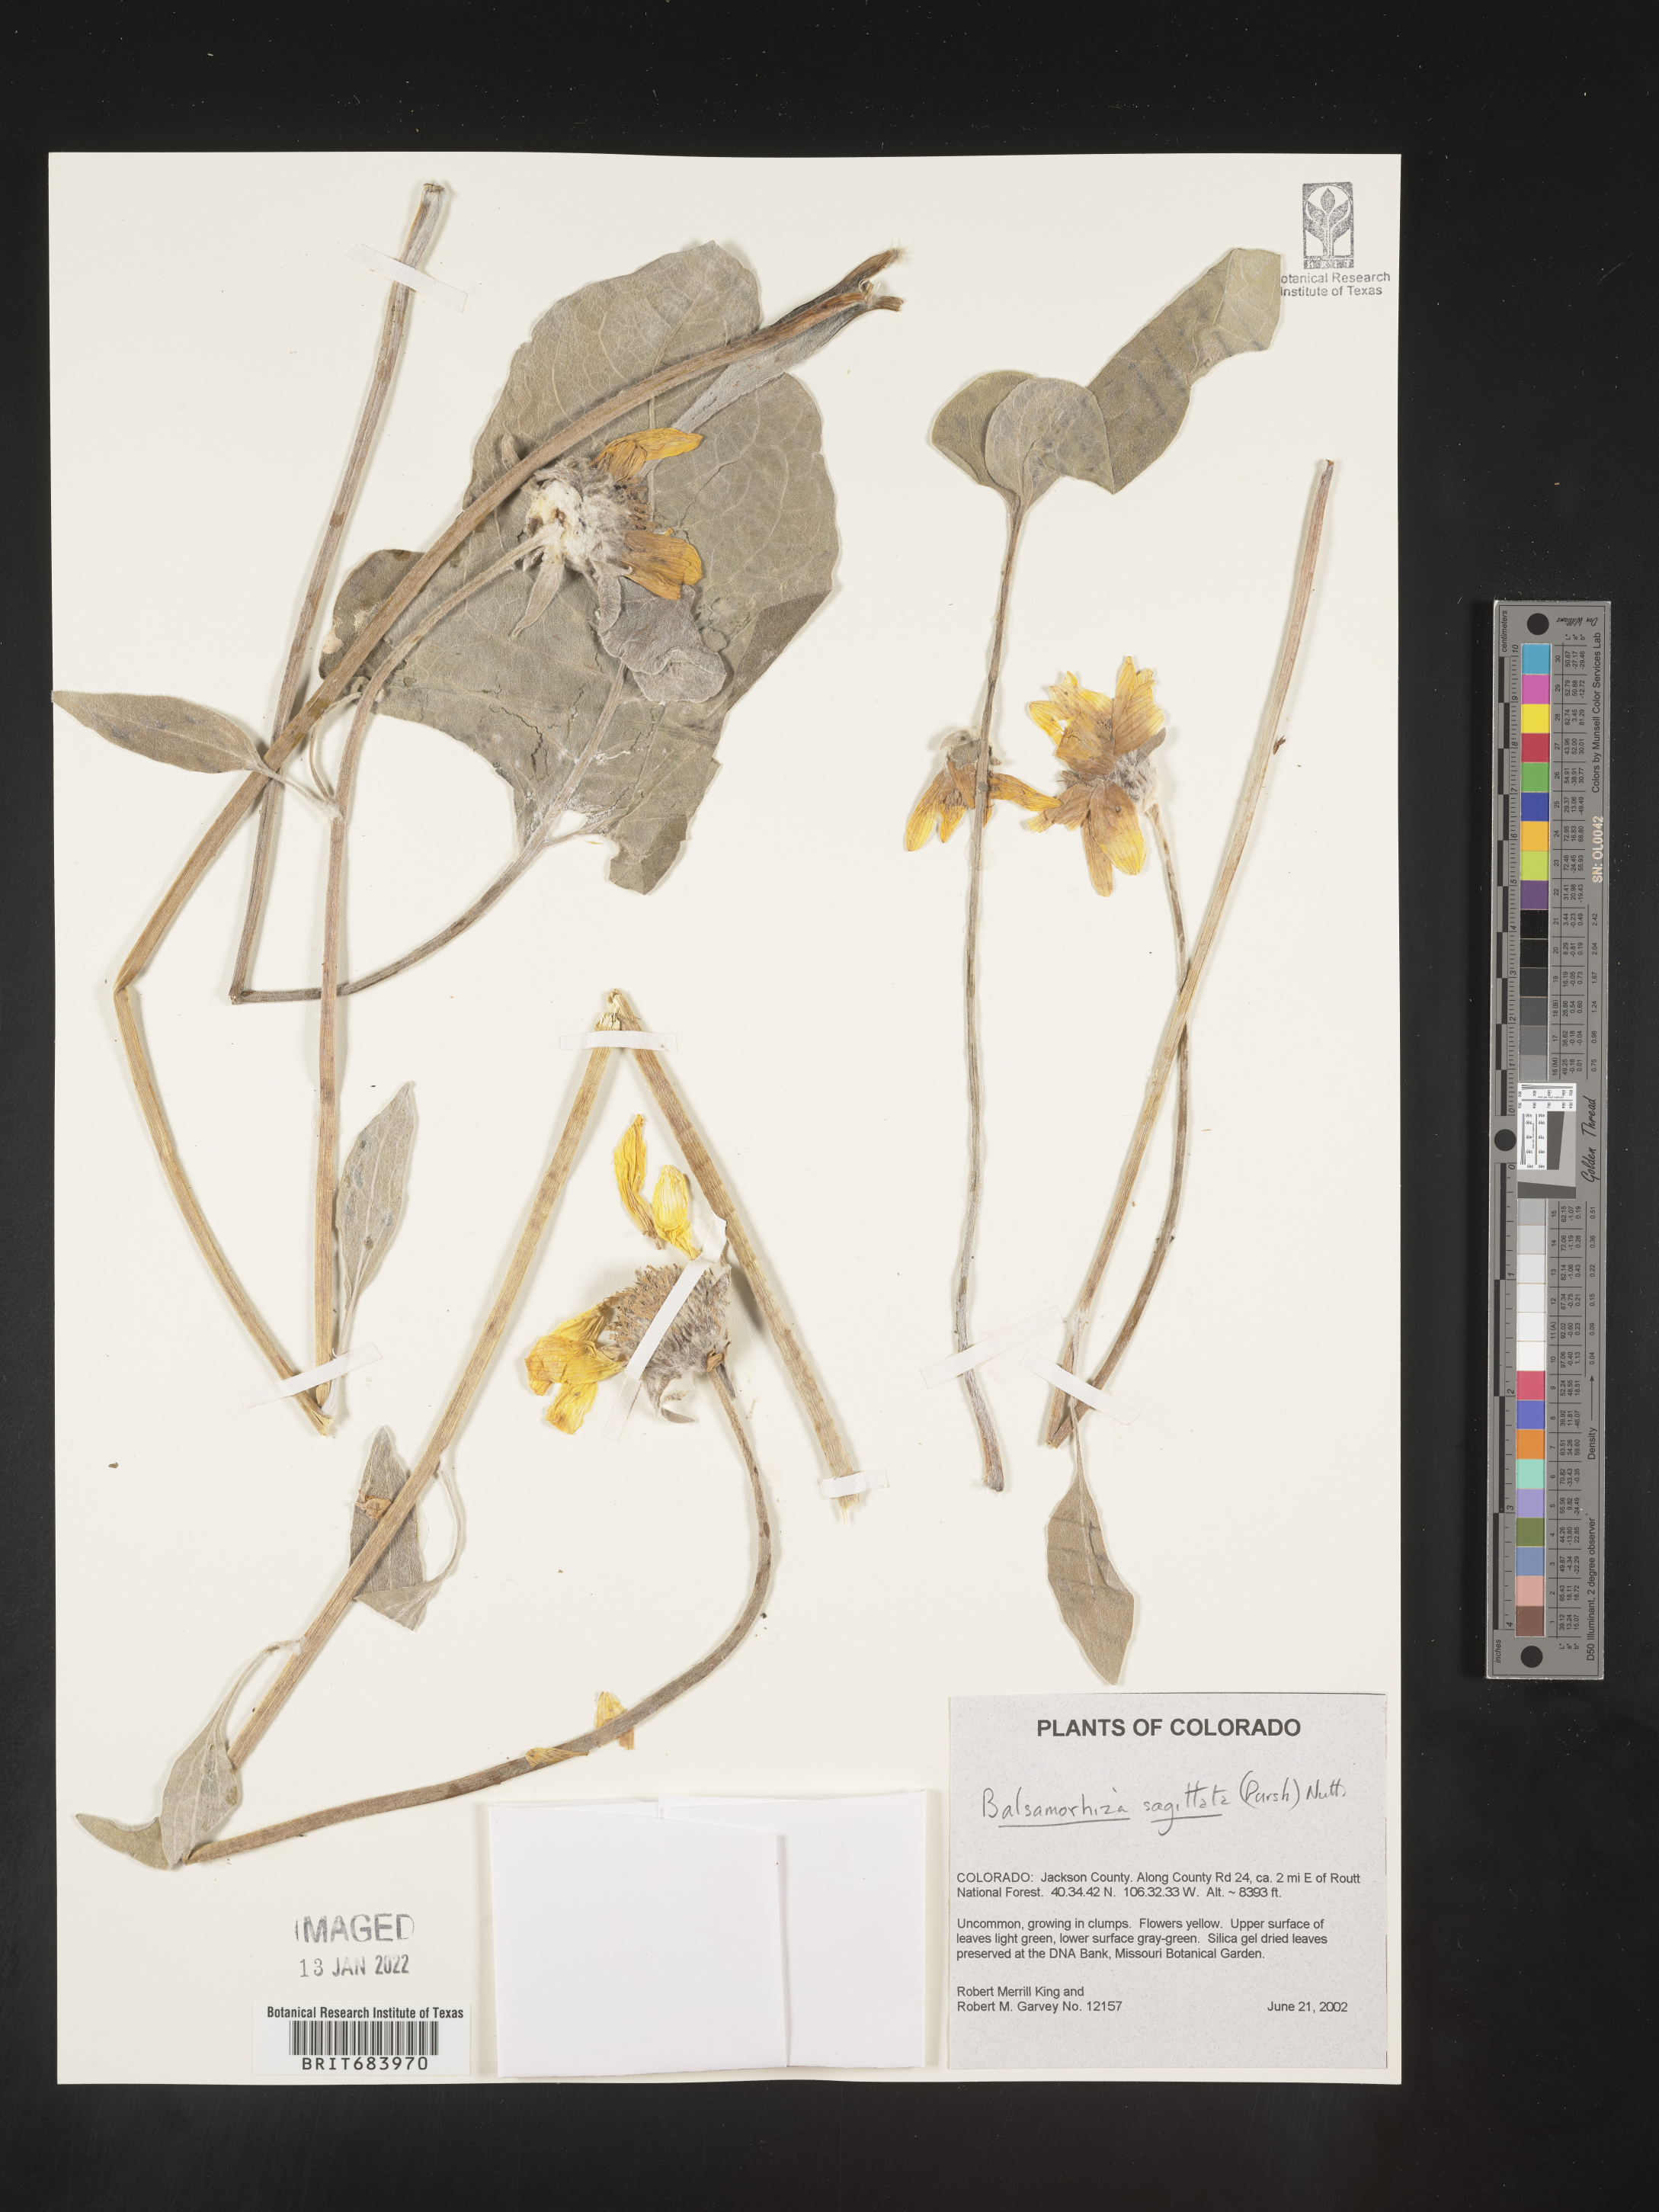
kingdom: Plantae
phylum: Tracheophyta
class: Magnoliopsida
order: Asterales
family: Asteraceae
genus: Wyethia
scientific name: Wyethia sagittata
